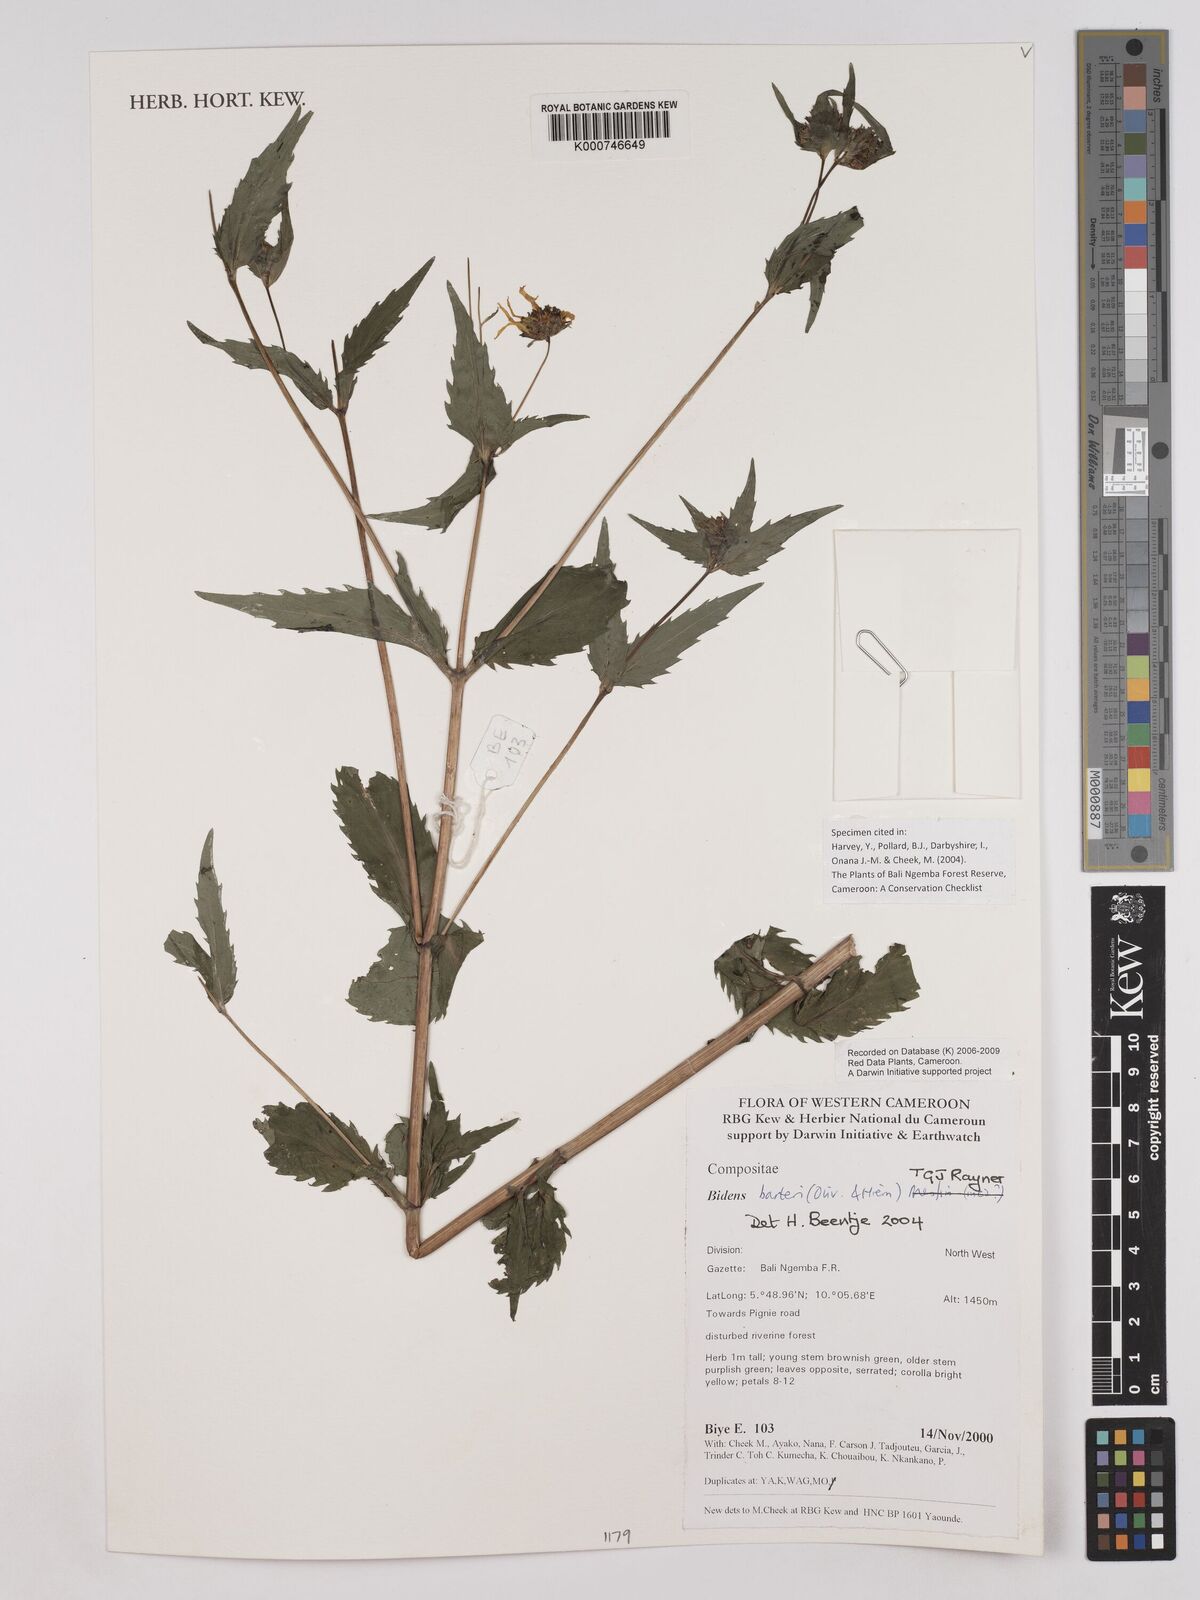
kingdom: Plantae
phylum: Tracheophyta
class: Magnoliopsida
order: Asterales
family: Asteraceae
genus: Bidens
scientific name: Bidens barteri
